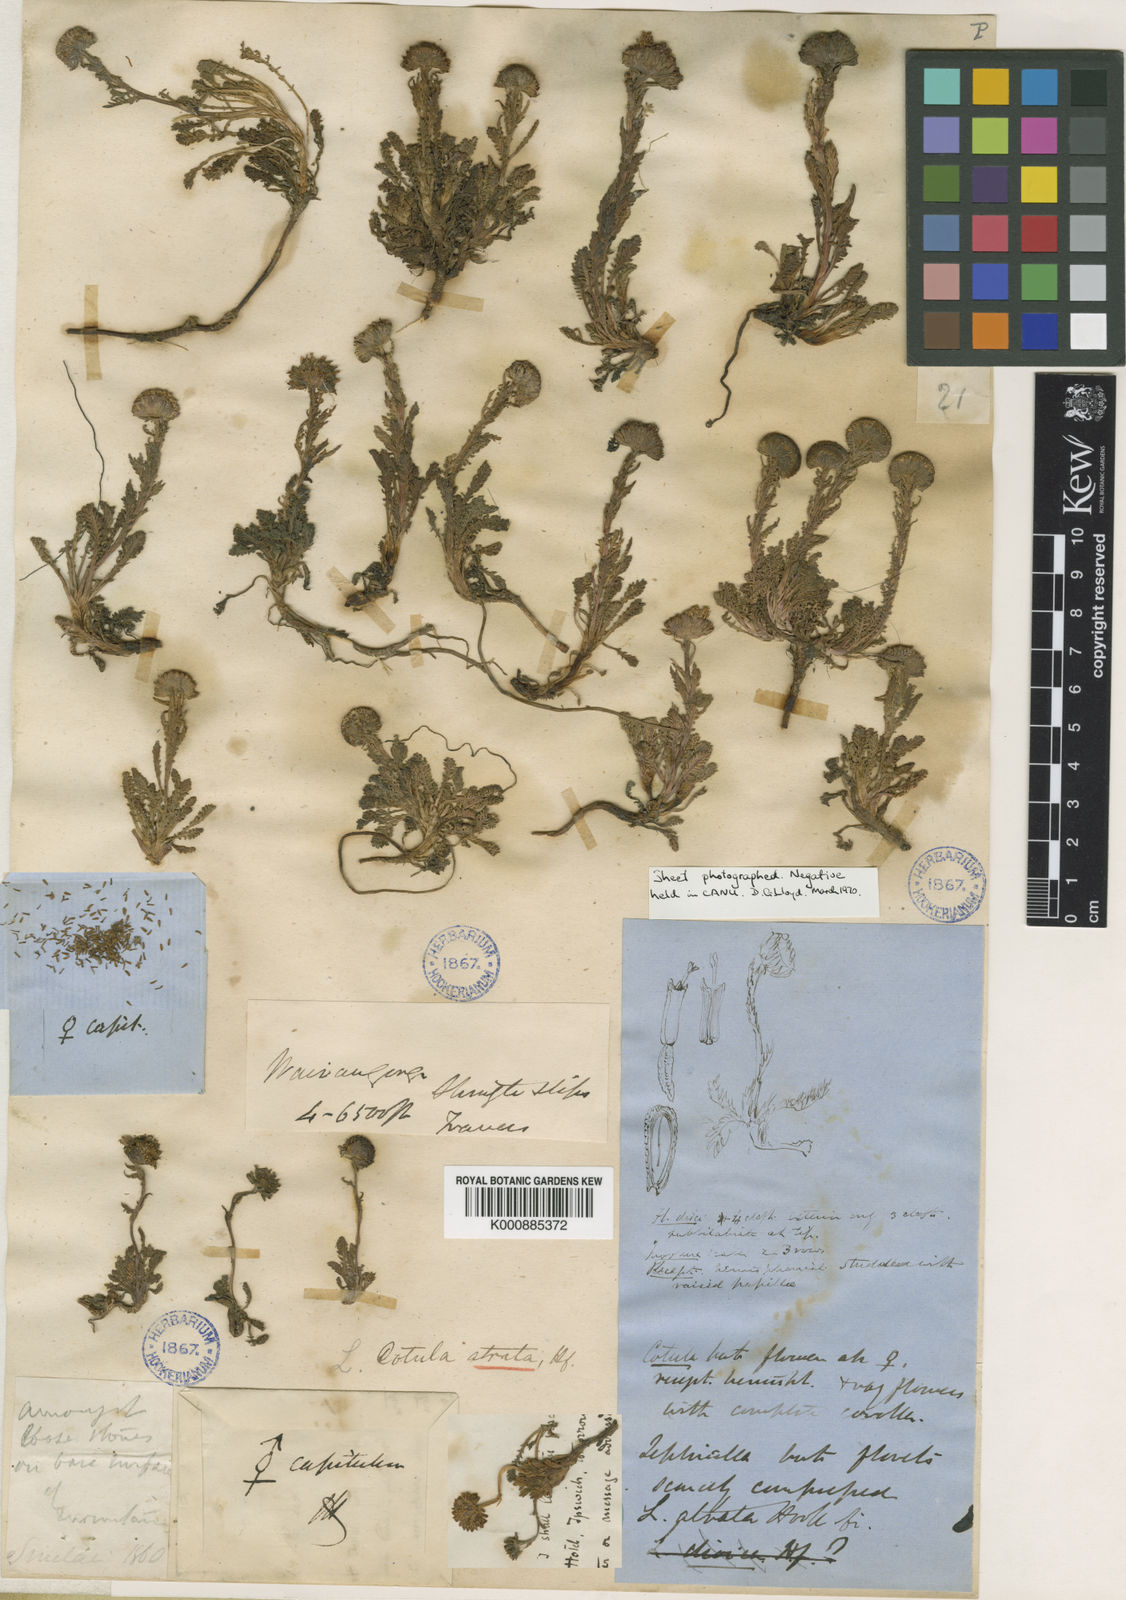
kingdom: Plantae
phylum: Tracheophyta
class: Magnoliopsida
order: Asterales
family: Asteraceae
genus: Leptinella
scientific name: Leptinella
